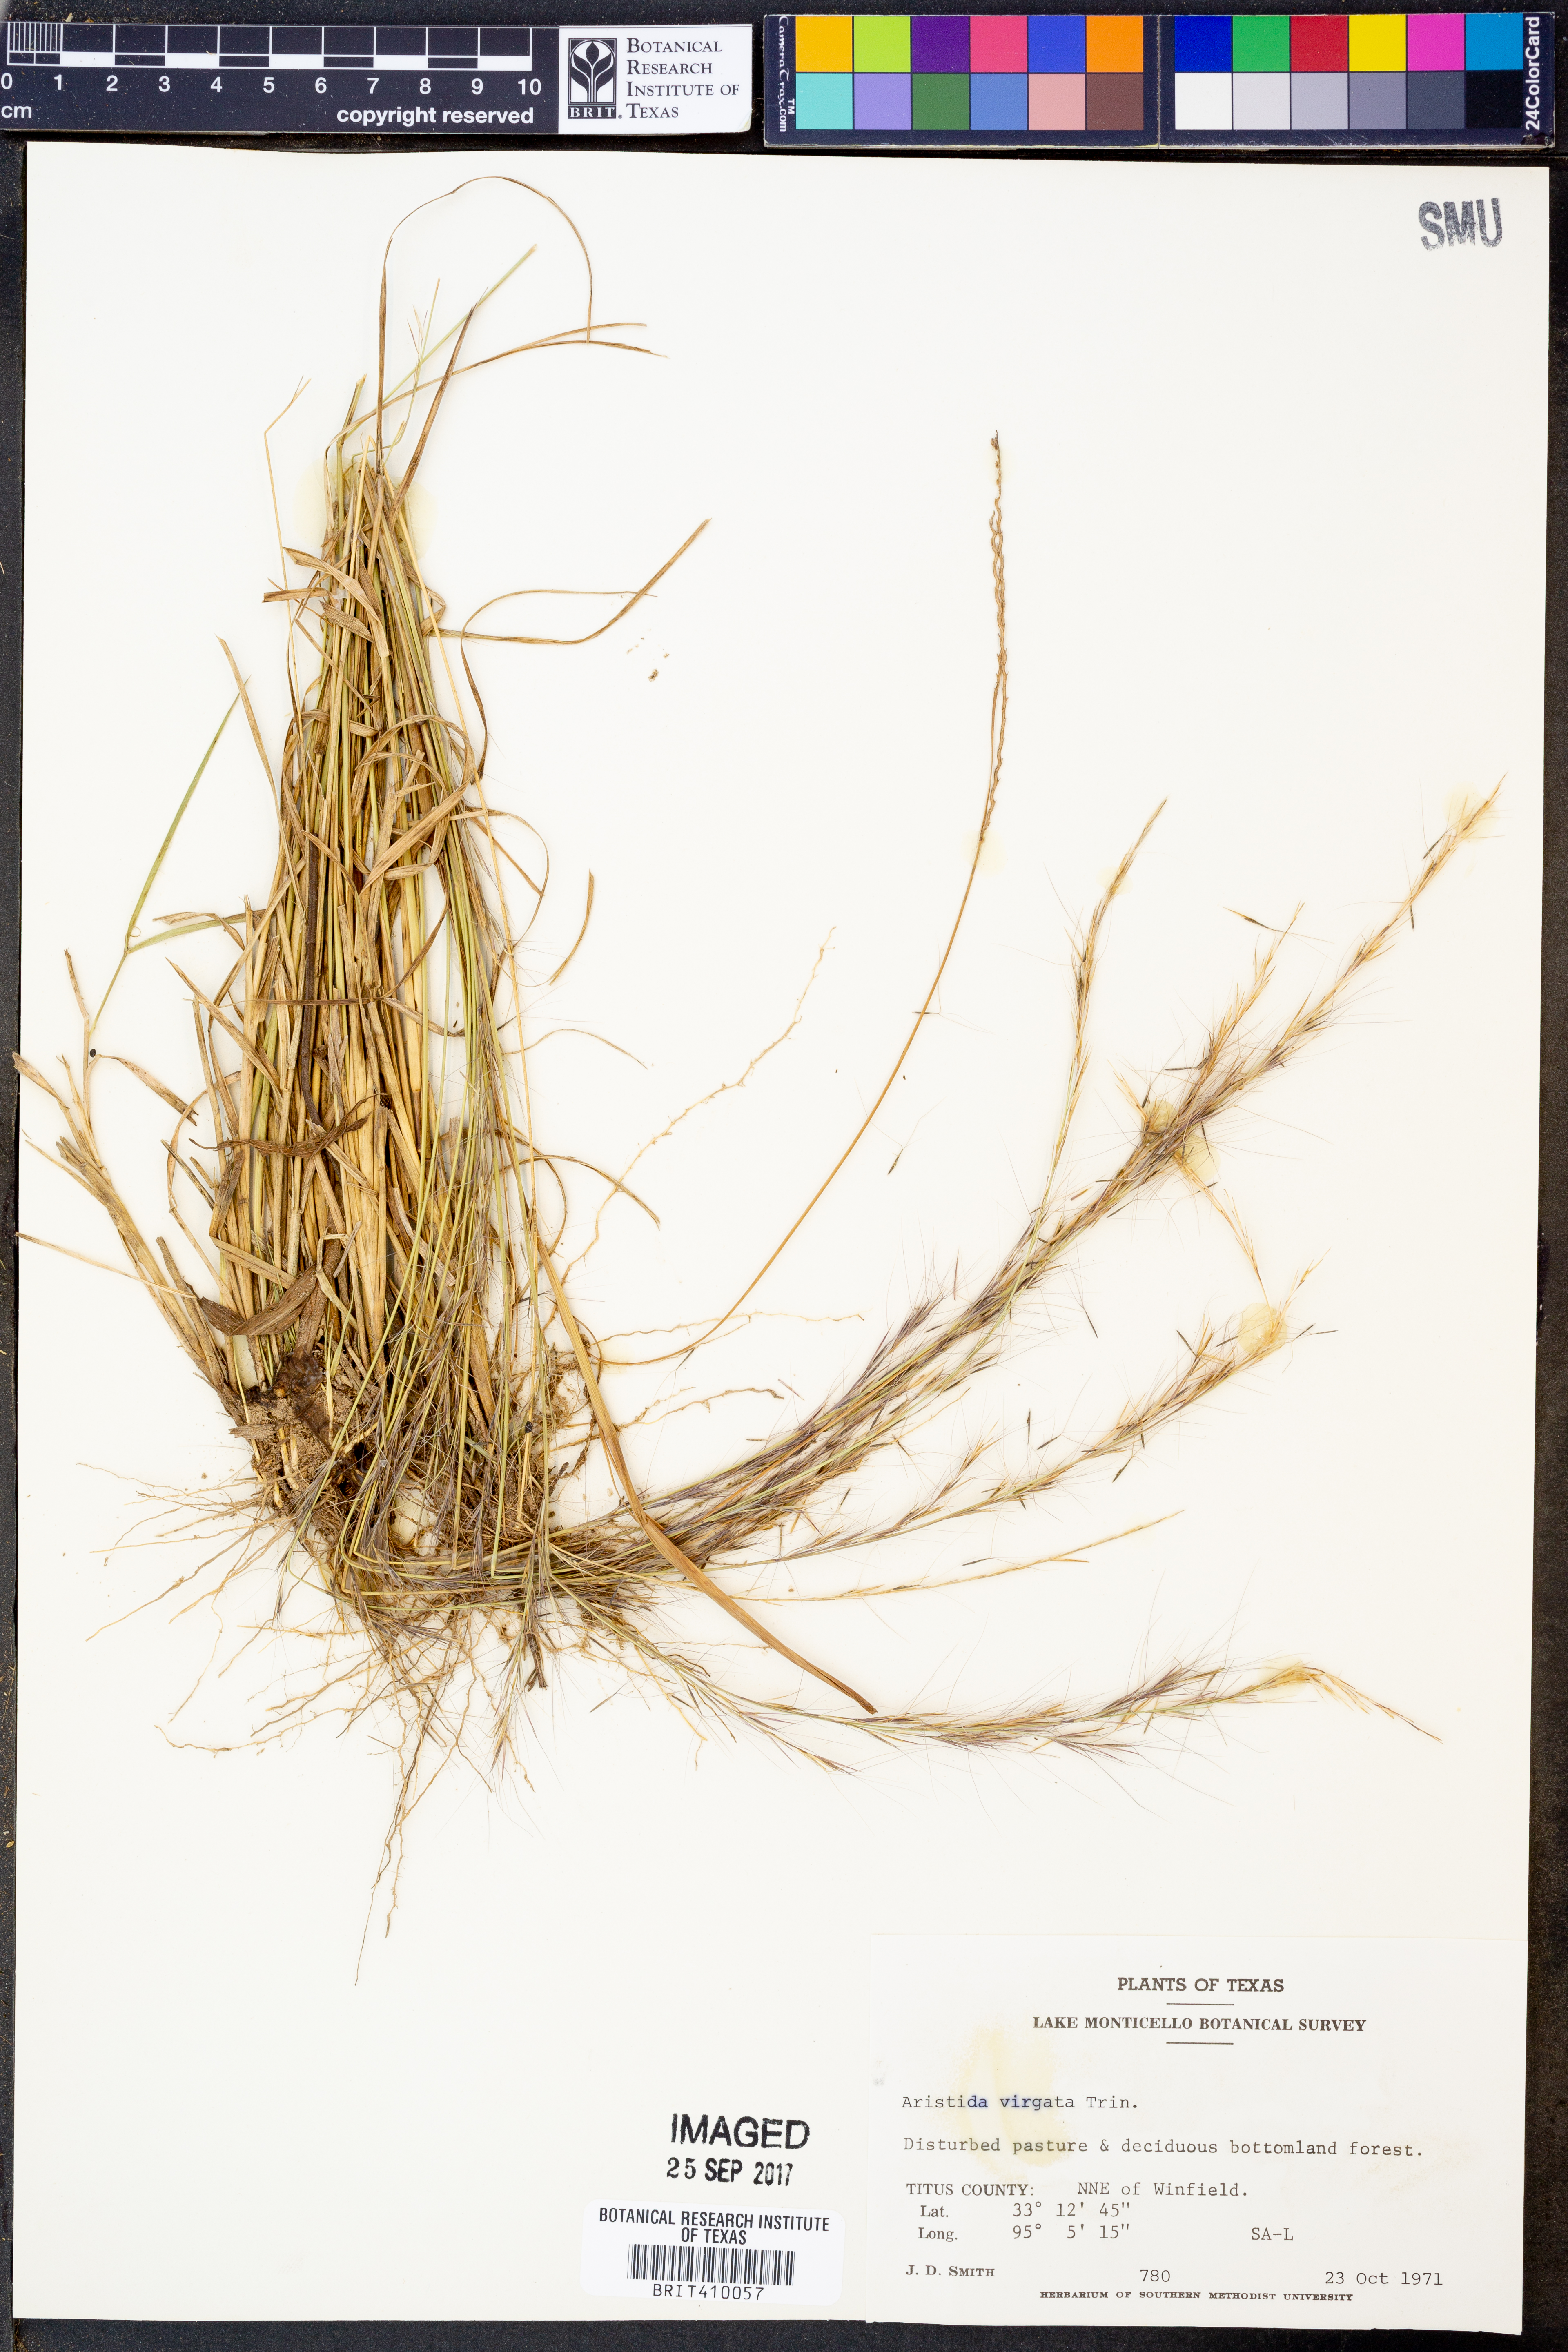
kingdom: Plantae
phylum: Tracheophyta
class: Liliopsida
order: Poales
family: Poaceae
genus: Aristida
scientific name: Aristida virgata
